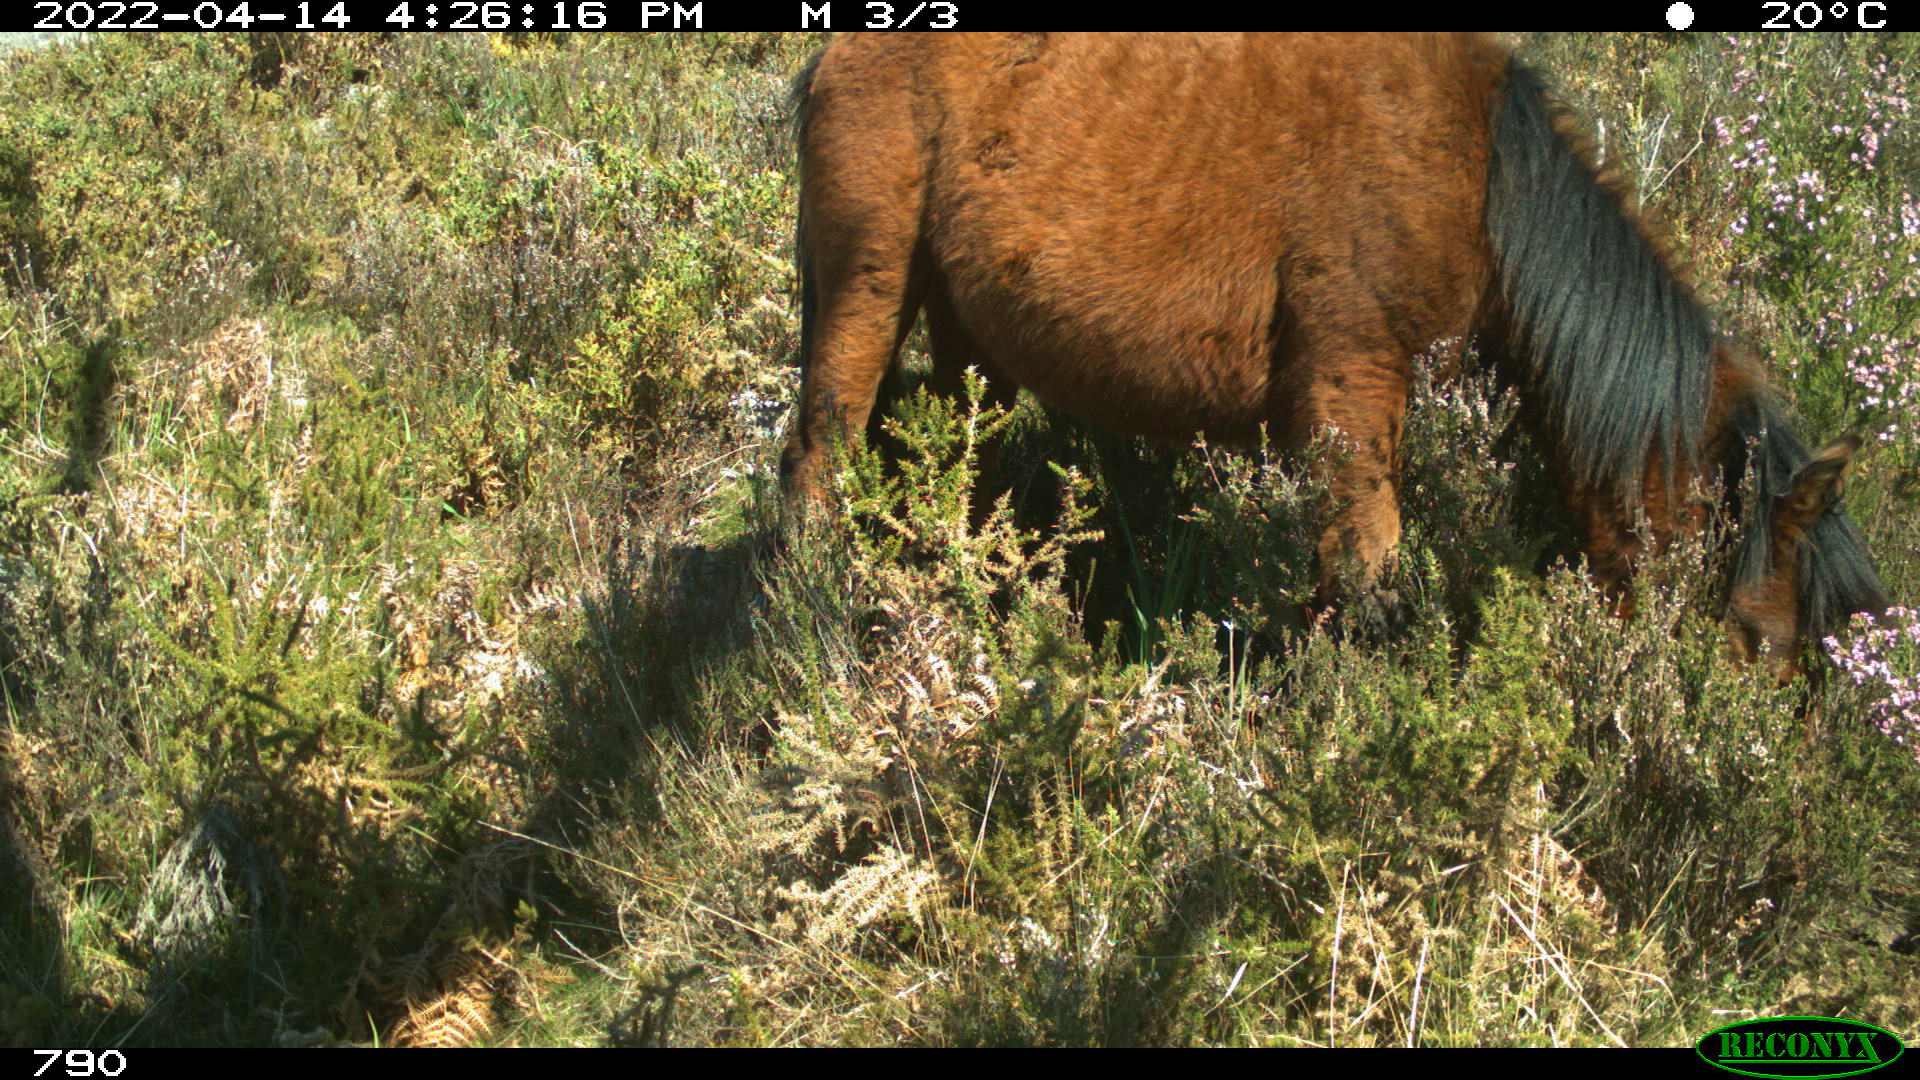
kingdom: Animalia
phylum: Chordata
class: Mammalia
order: Perissodactyla
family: Equidae
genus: Equus
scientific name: Equus caballus
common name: Horse
